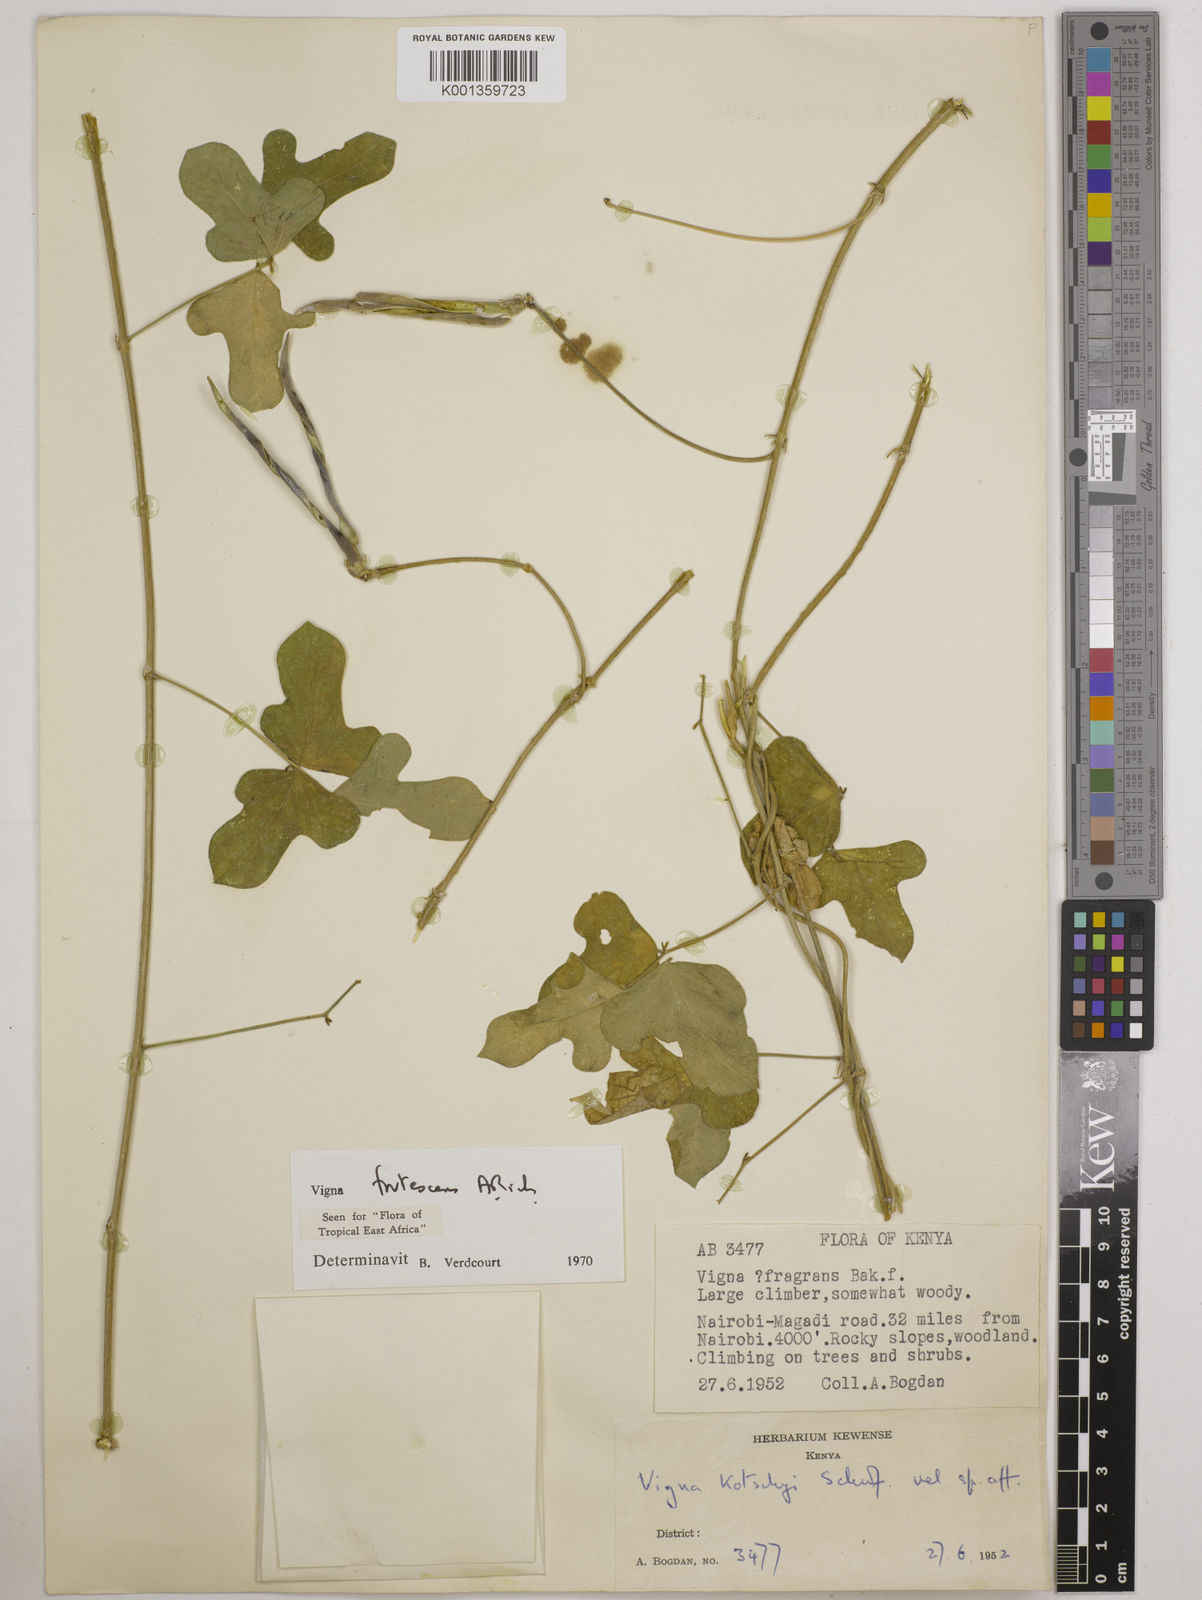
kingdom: Plantae
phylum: Tracheophyta
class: Magnoliopsida
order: Fabales
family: Fabaceae
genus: Vigna
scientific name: Vigna frutescens
